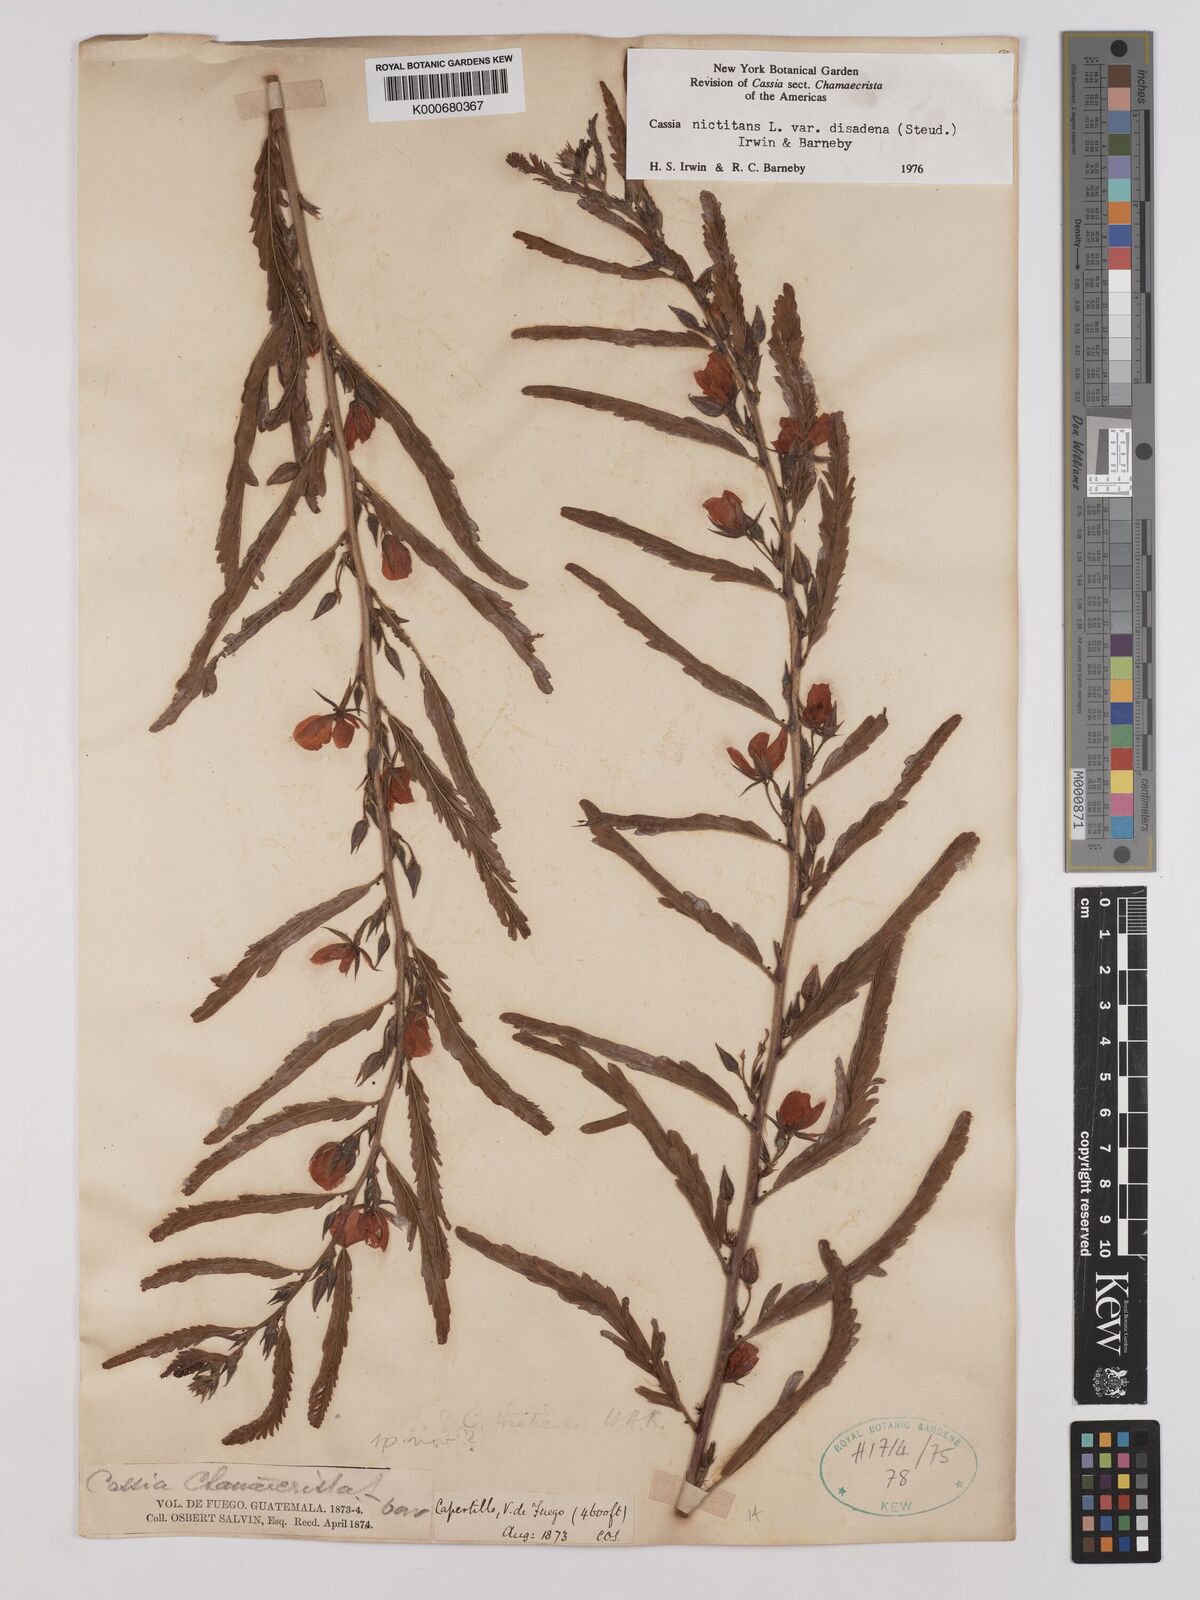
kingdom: Plantae
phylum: Tracheophyta
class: Magnoliopsida
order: Fabales
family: Fabaceae
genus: Chamaecrista
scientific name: Chamaecrista nictitans
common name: Sensitive cassia
